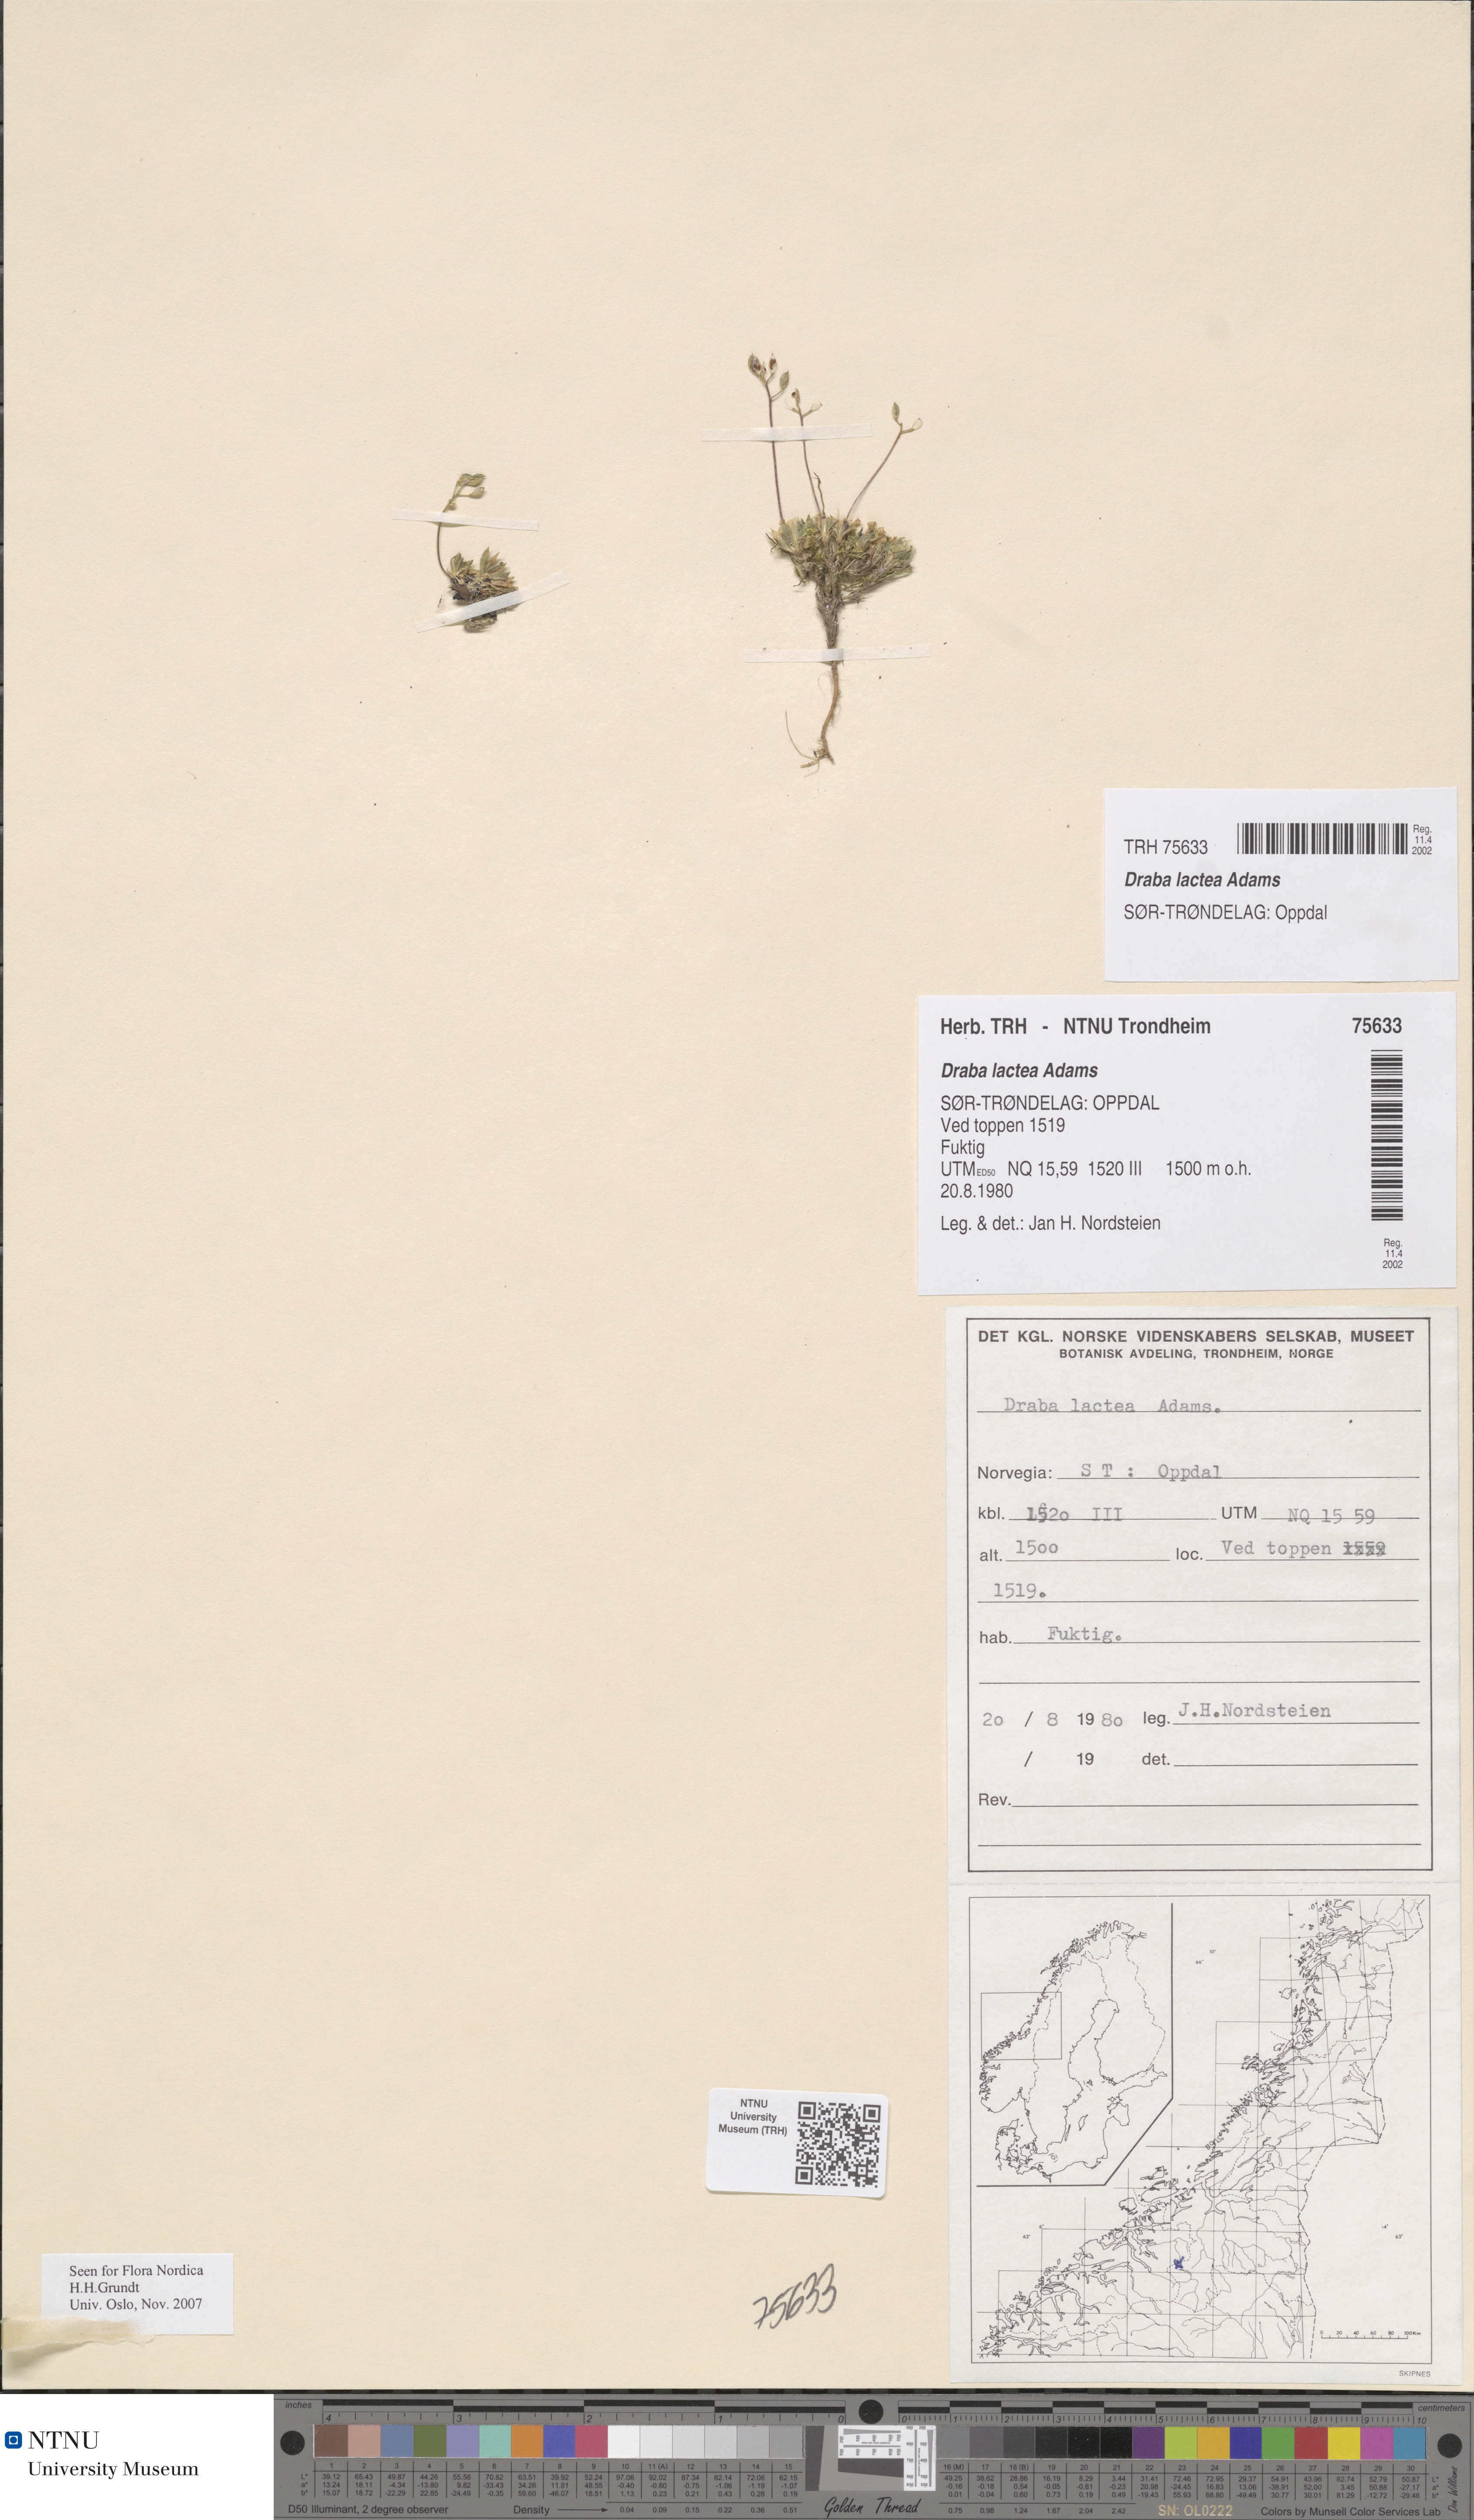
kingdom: Plantae
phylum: Tracheophyta
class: Magnoliopsida
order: Brassicales
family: Brassicaceae
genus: Draba
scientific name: Draba lactea
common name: Milky draba
